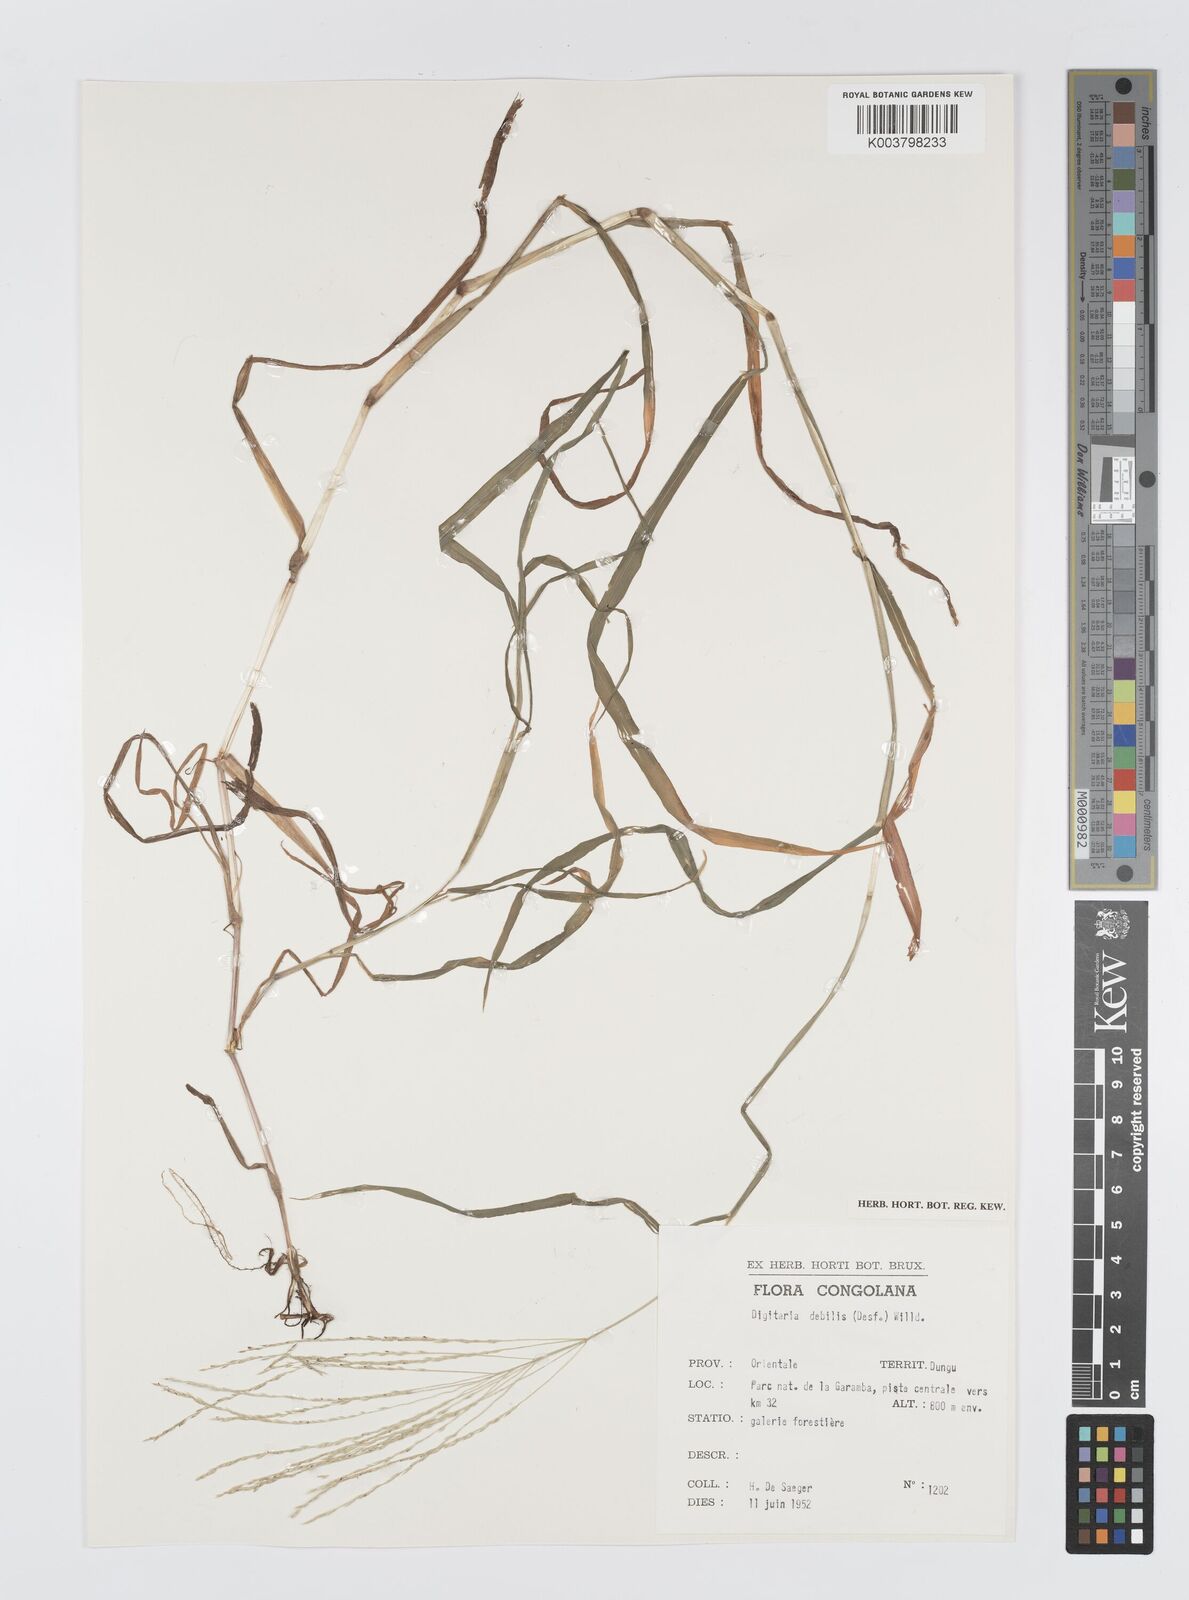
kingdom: Plantae
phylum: Tracheophyta
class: Liliopsida
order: Poales
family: Poaceae
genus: Digitaria
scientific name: Digitaria debilis
